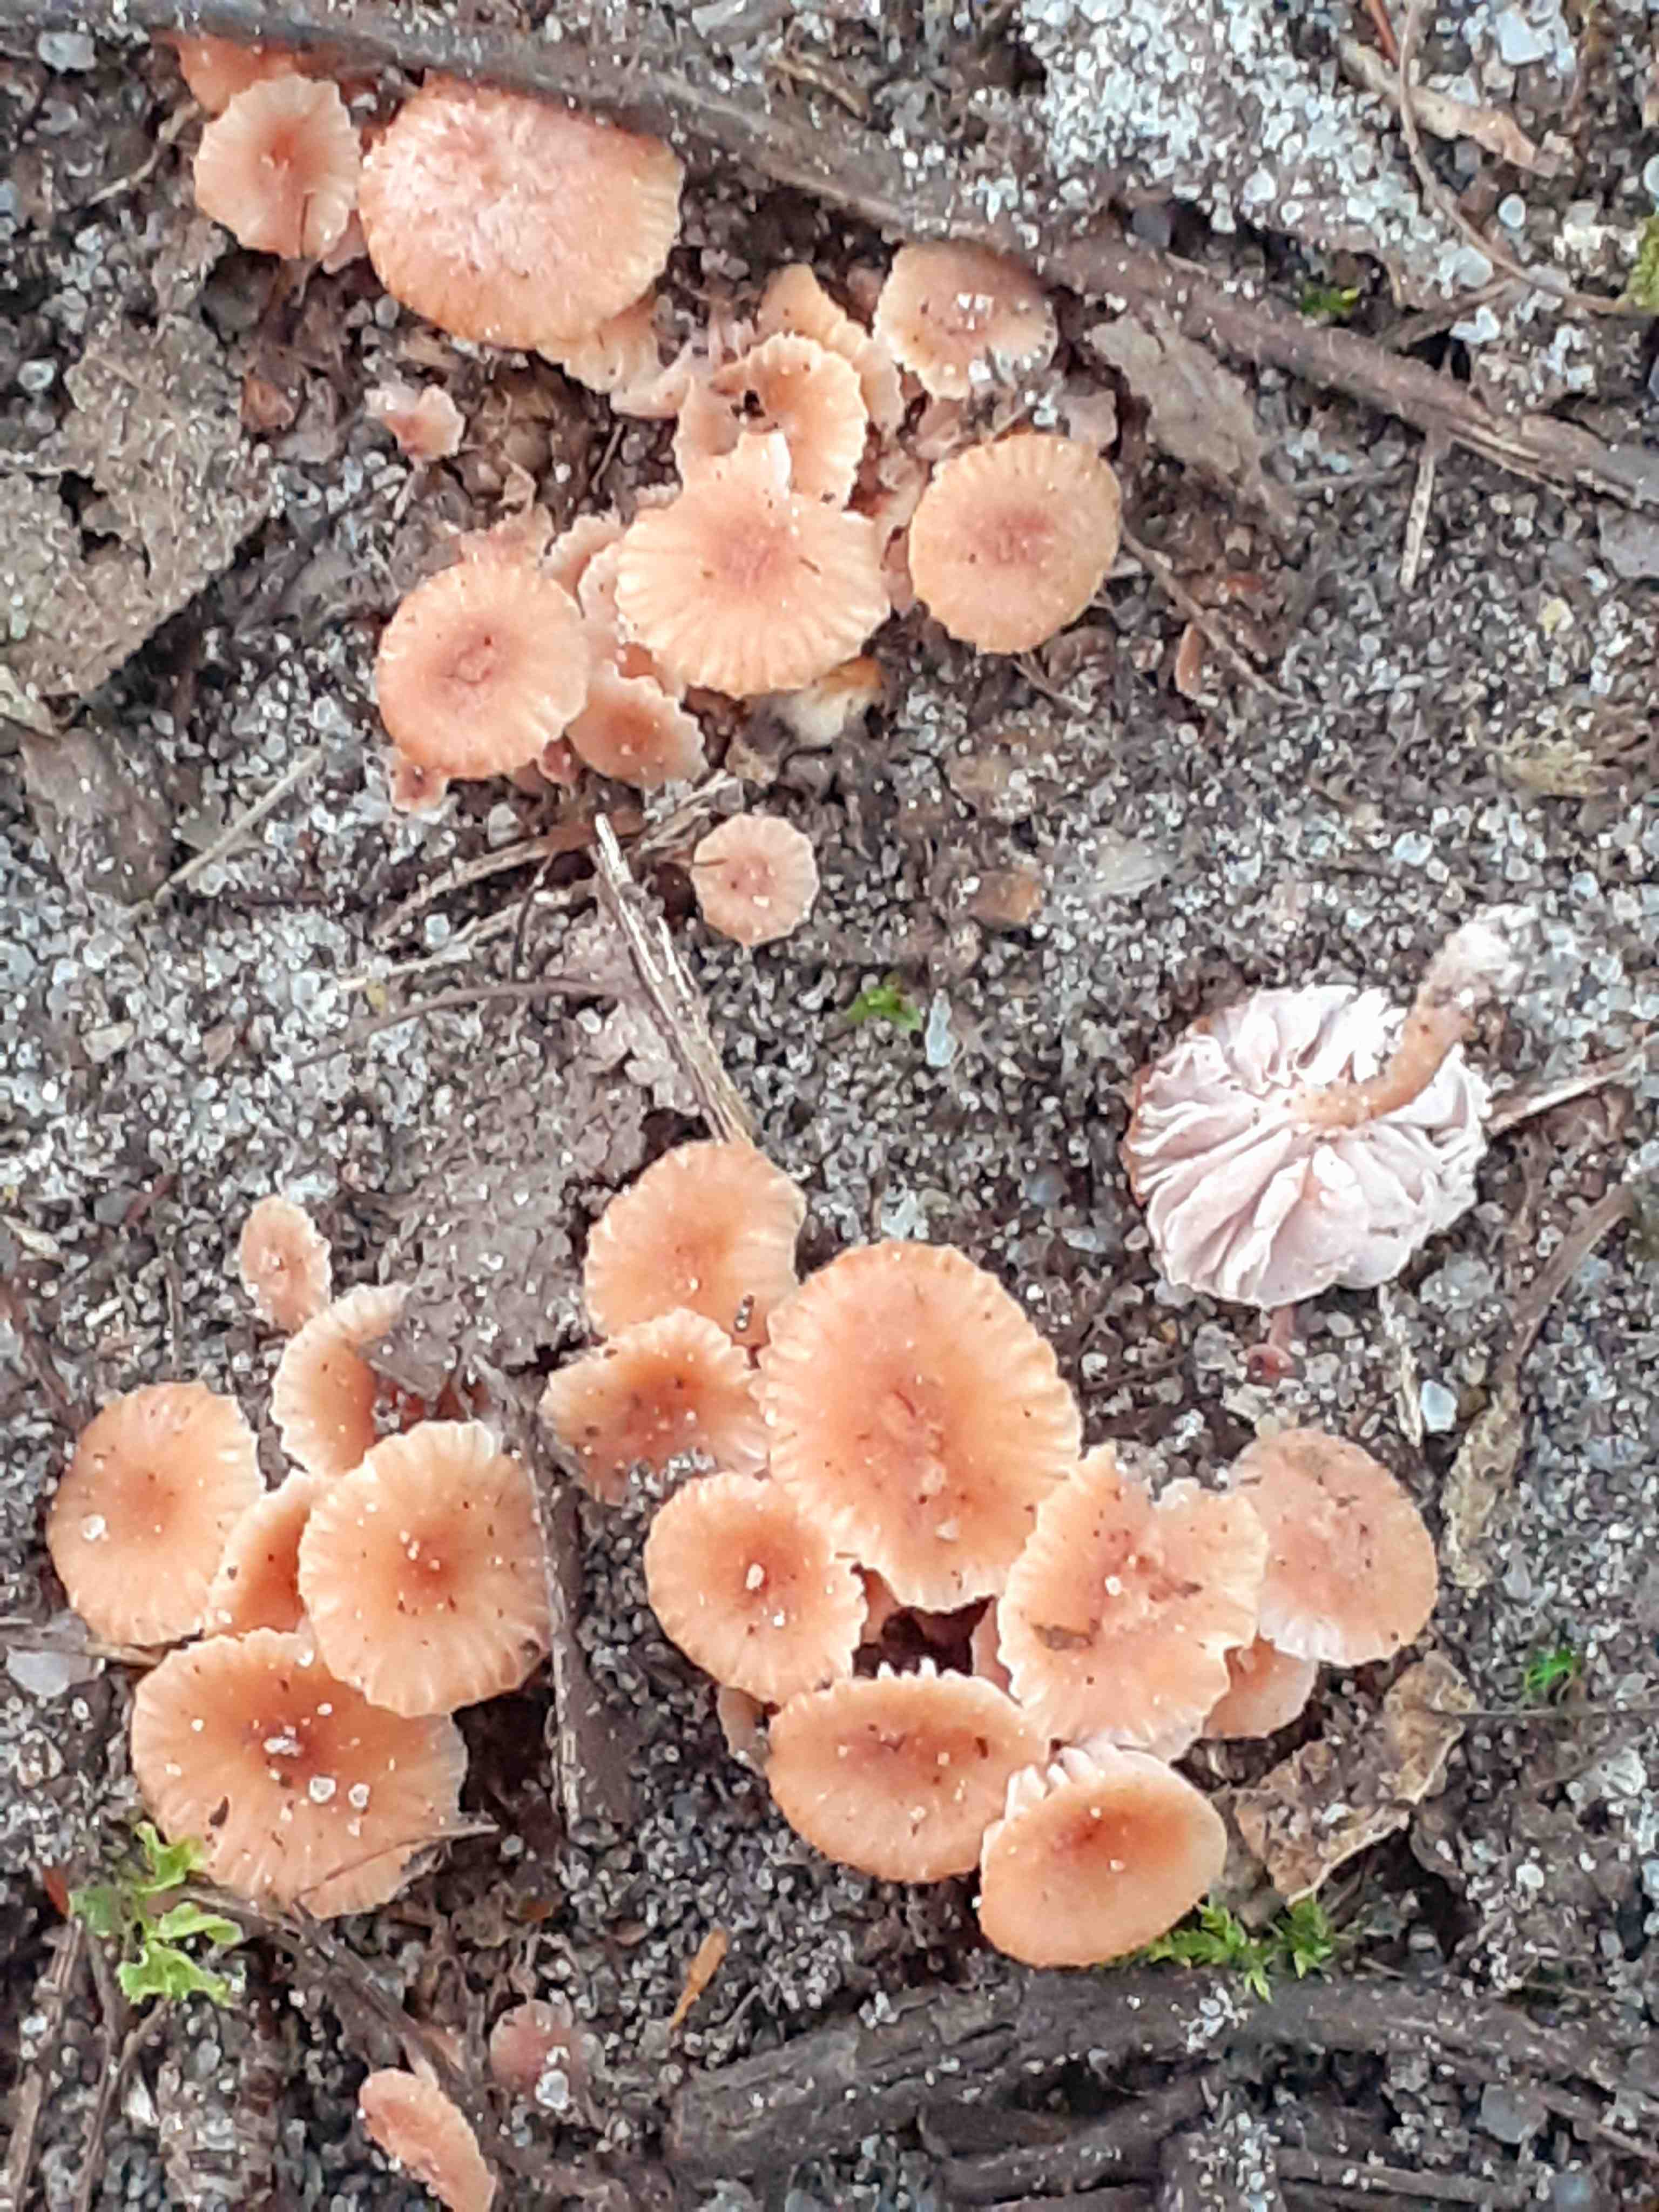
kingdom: Fungi
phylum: Basidiomycota
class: Agaricomycetes
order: Agaricales
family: Hydnangiaceae
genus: Laccaria
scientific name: Laccaria tortilis
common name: krybende ametysthat
